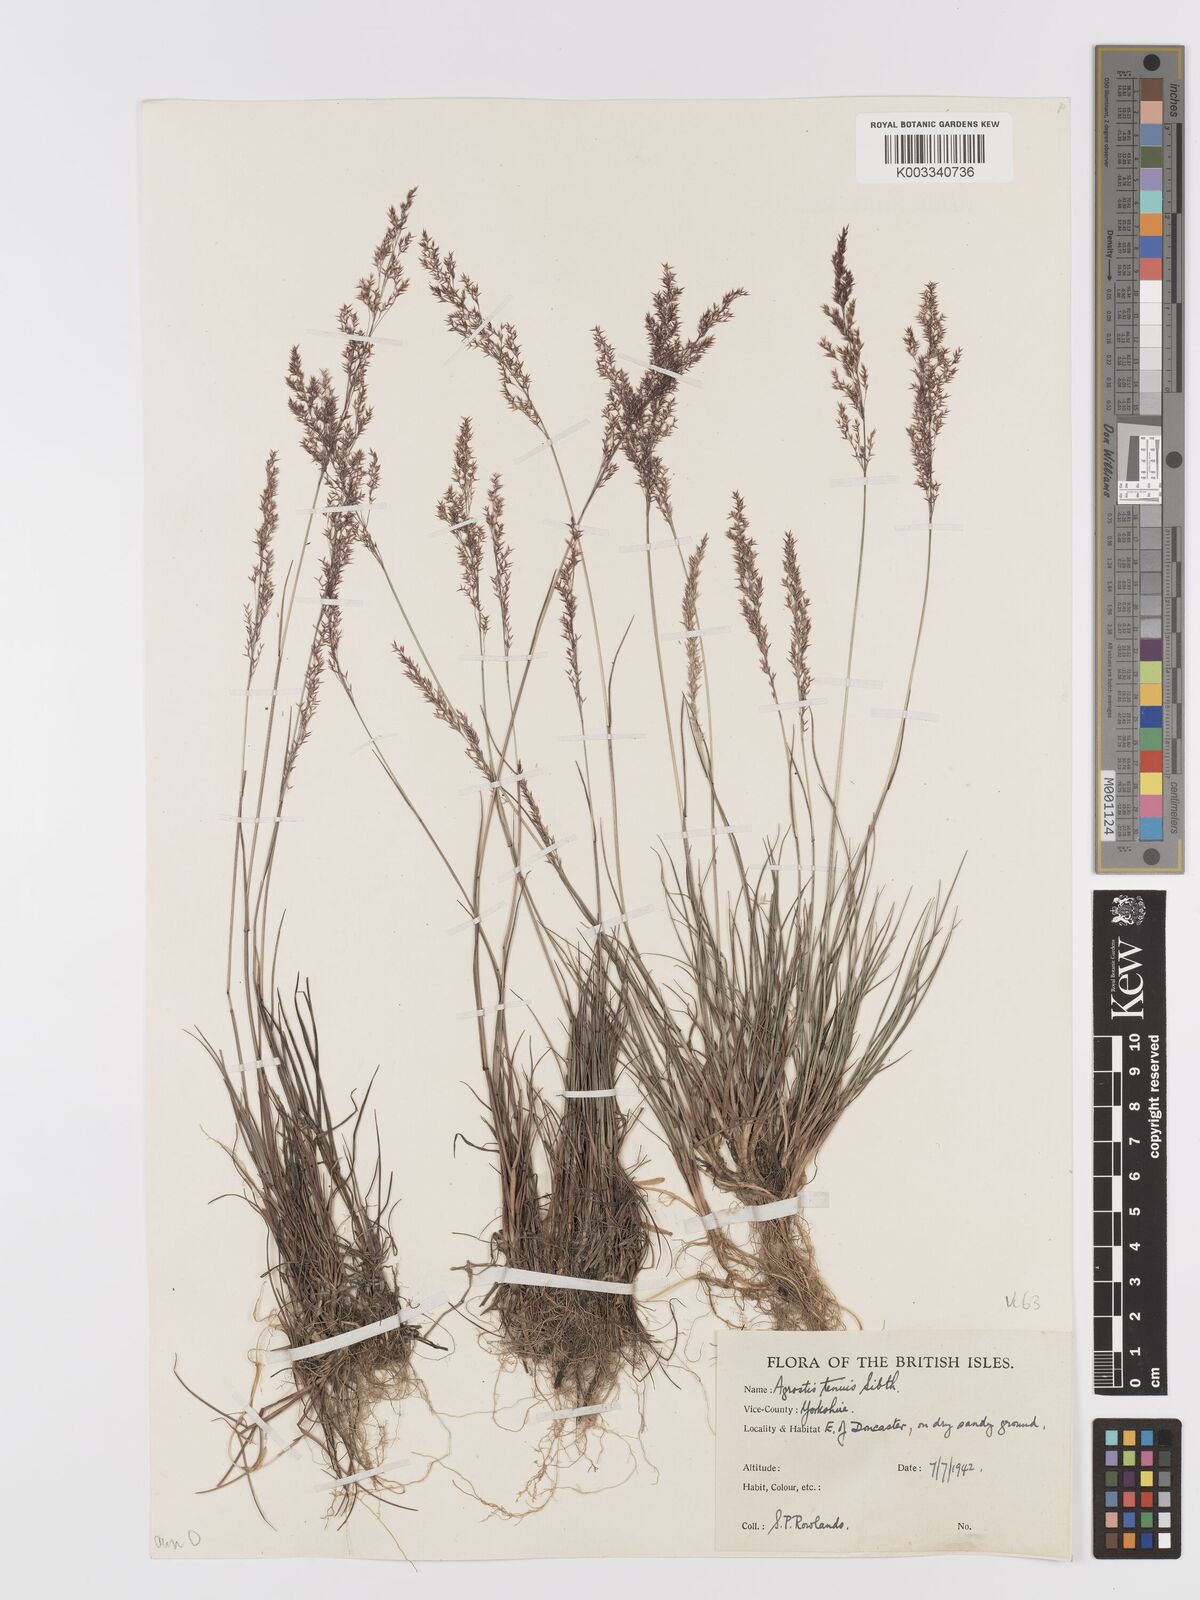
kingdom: Plantae
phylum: Tracheophyta
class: Liliopsida
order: Poales
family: Poaceae
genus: Agrostis
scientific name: Agrostis capillaris
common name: Colonial bentgrass
